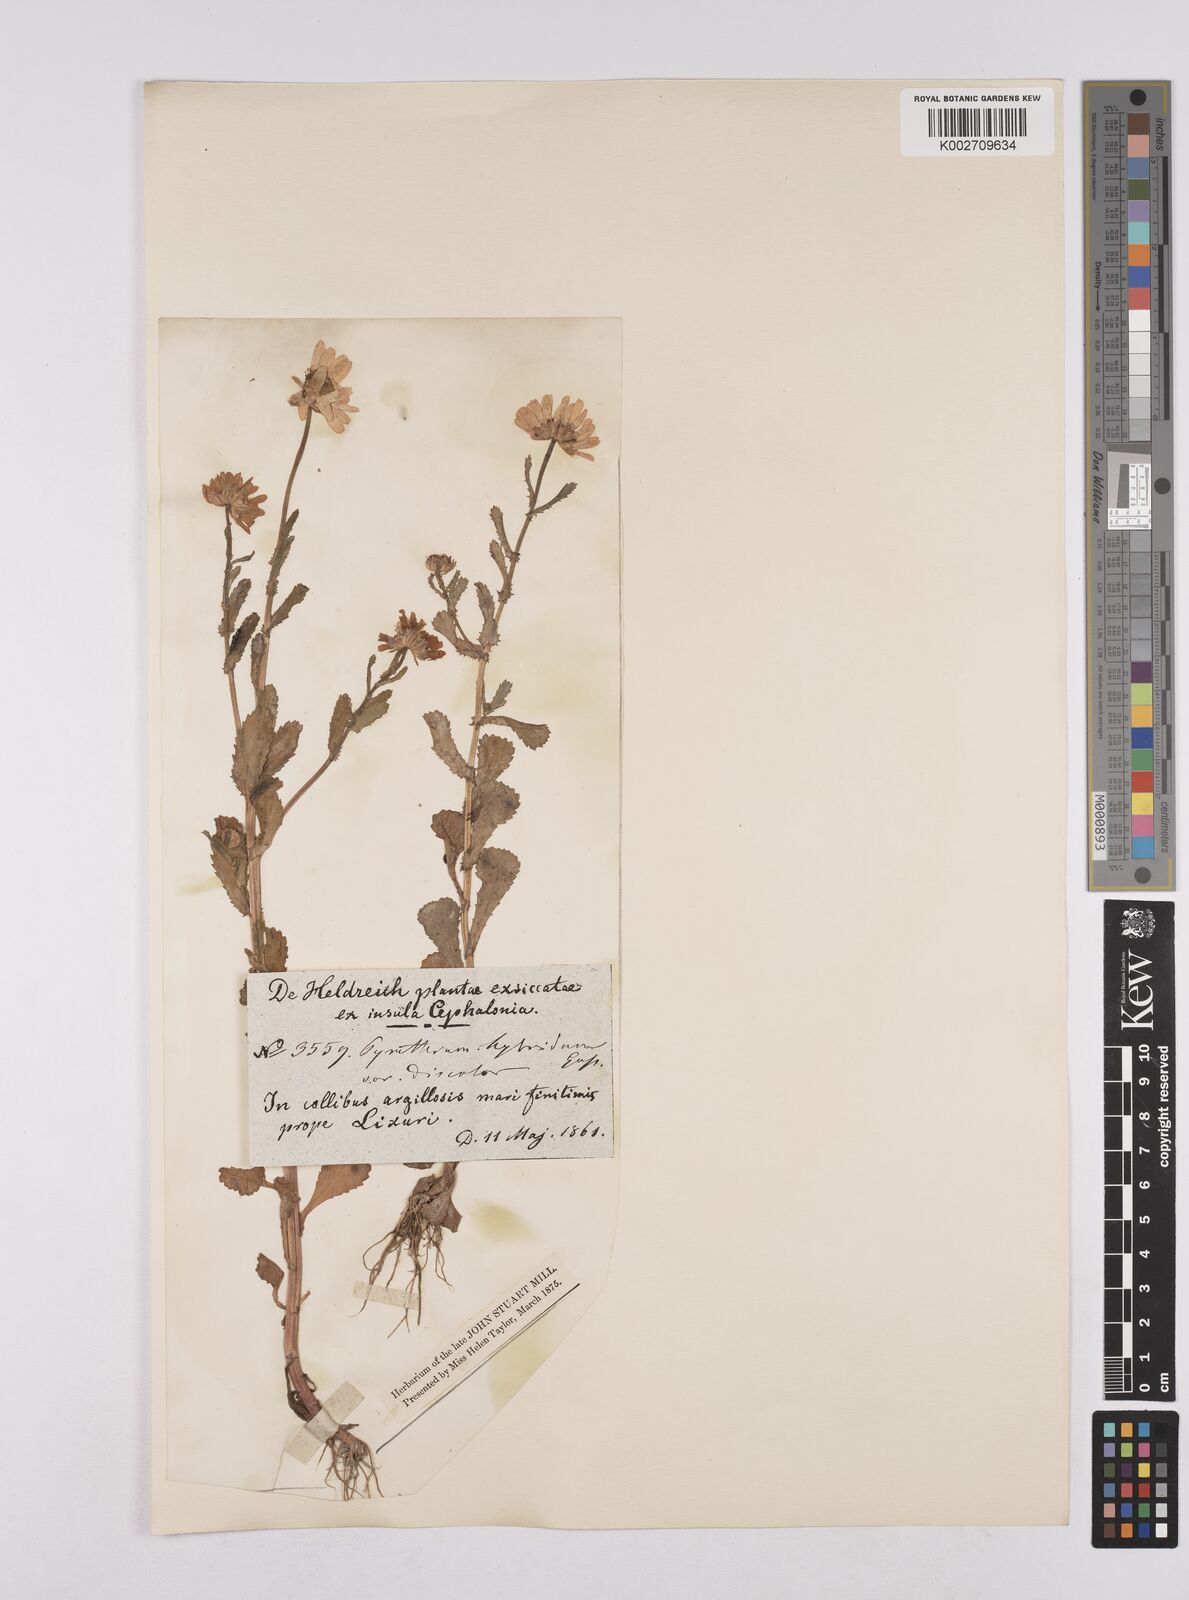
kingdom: Plantae
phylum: Tracheophyta
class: Magnoliopsida
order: Asterales
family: Asteraceae
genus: Coleostephus
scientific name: Coleostephus paludosus
